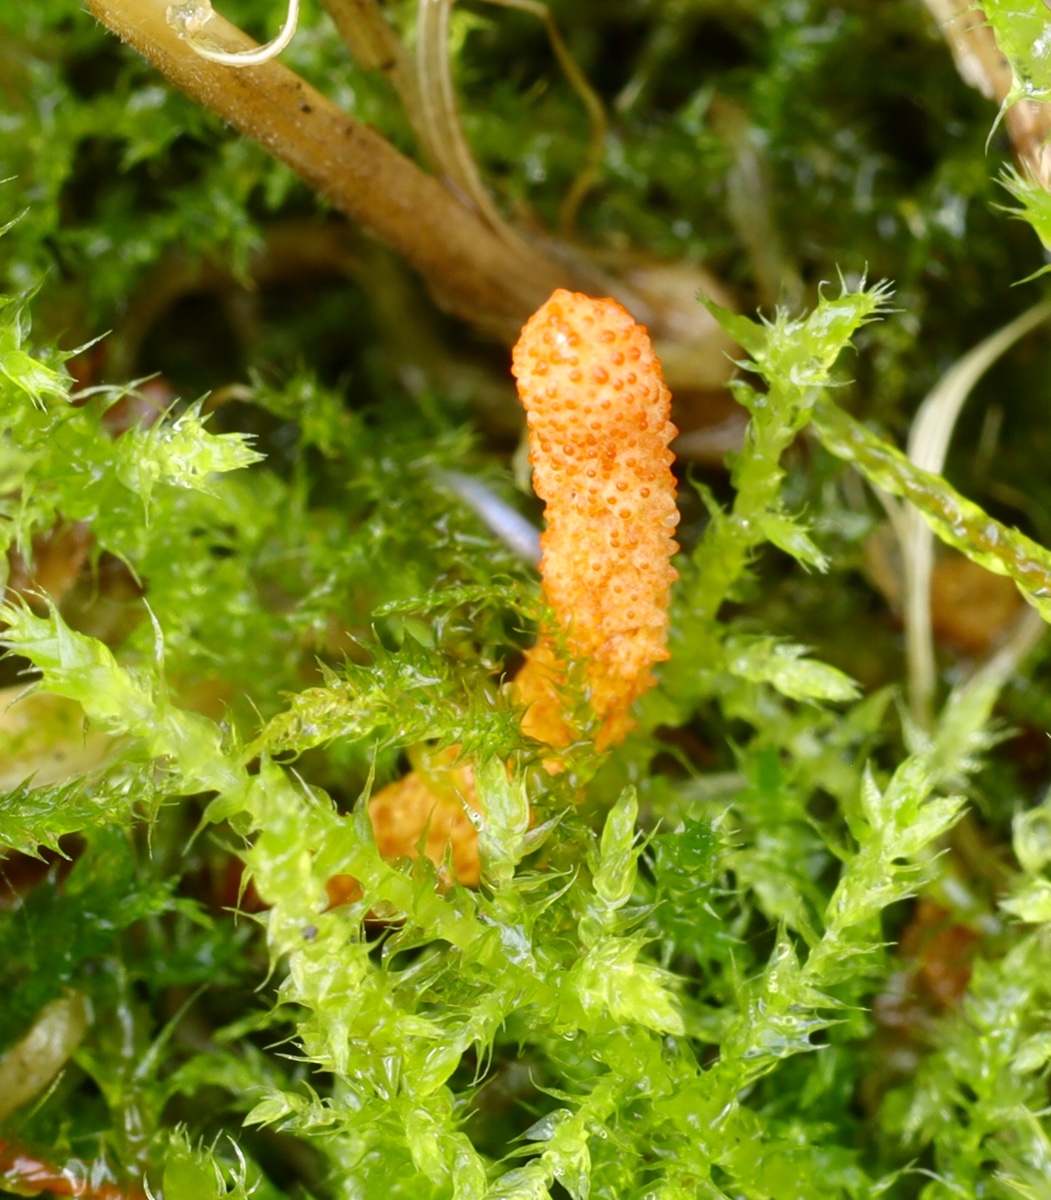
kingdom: Fungi
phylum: Ascomycota
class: Sordariomycetes
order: Hypocreales
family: Cordycipitaceae
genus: Cordyceps
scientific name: Cordyceps militaris
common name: puppe-snyltekølle
